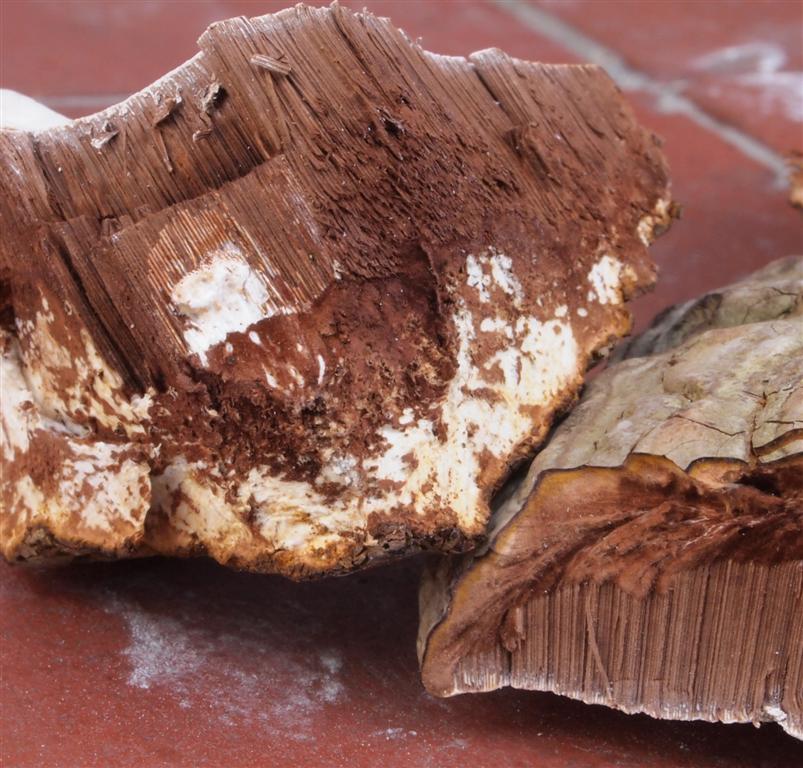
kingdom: Fungi
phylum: Basidiomycota
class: Agaricomycetes
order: Polyporales
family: Polyporaceae
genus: Ganoderma
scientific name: Ganoderma applanatum
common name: flad lakporesvamp
